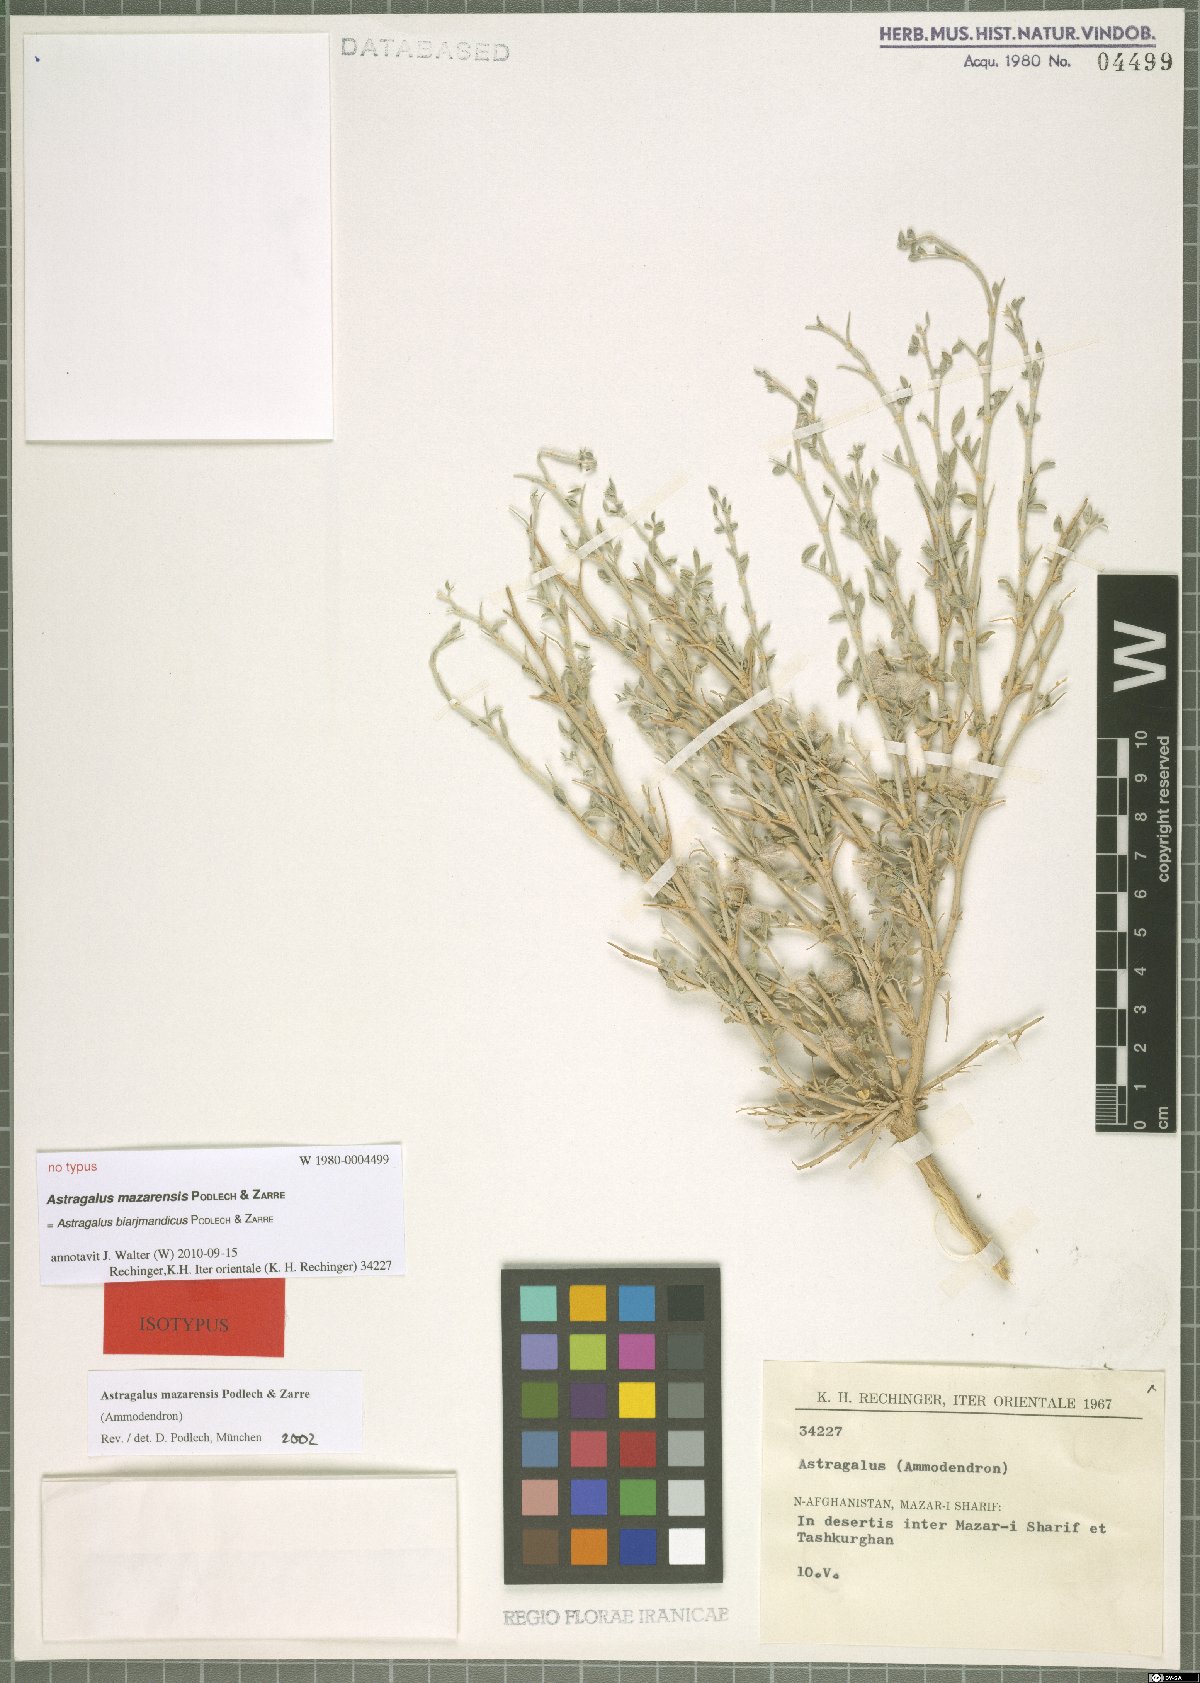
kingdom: Plantae
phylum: Tracheophyta
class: Magnoliopsida
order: Fabales
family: Fabaceae
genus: Astragalus
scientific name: Astragalus biarjmandicus
